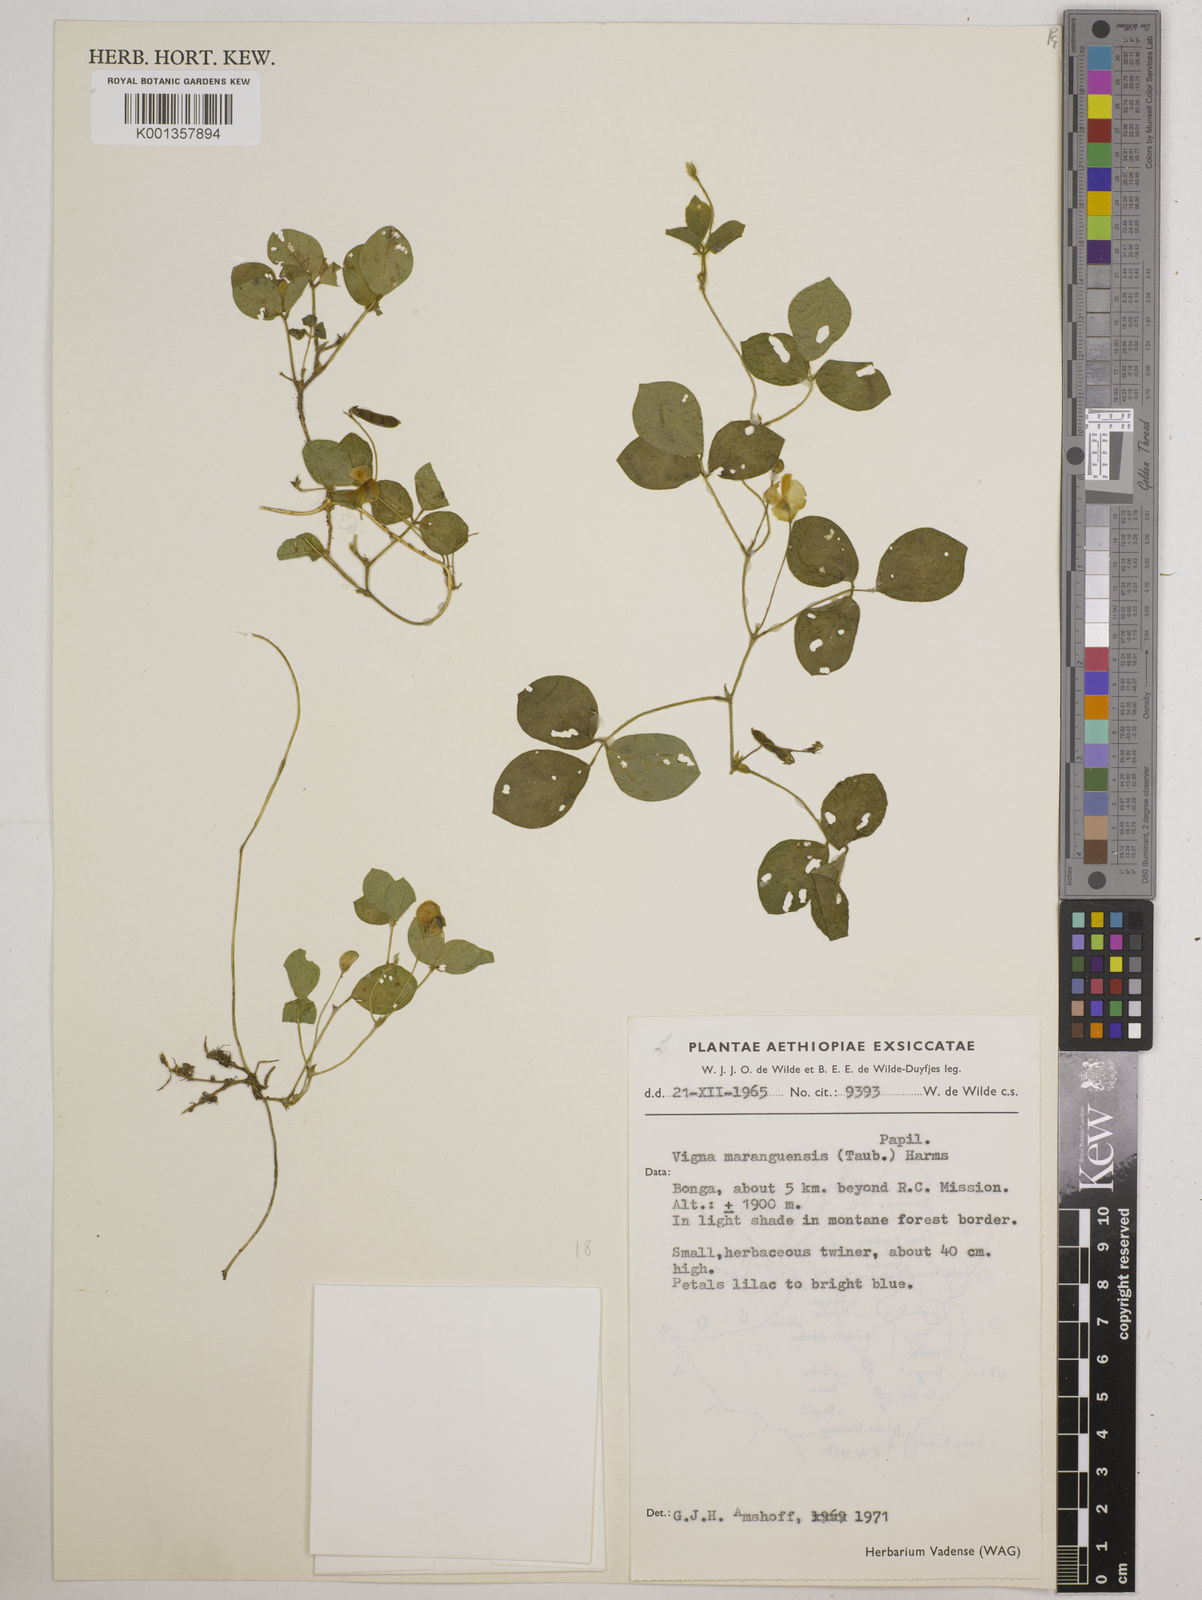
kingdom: Plantae
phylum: Tracheophyta
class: Magnoliopsida
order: Fabales
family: Fabaceae
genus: Vigna
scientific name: Vigna
